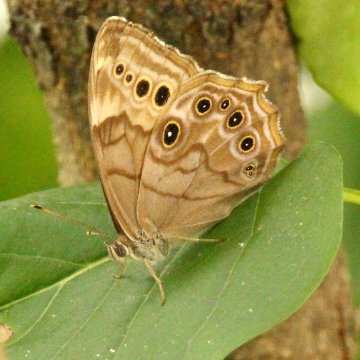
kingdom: Animalia
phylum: Arthropoda
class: Insecta
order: Lepidoptera
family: Nymphalidae
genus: Lethe
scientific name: Lethe anthedon
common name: Northern Pearly-Eye
